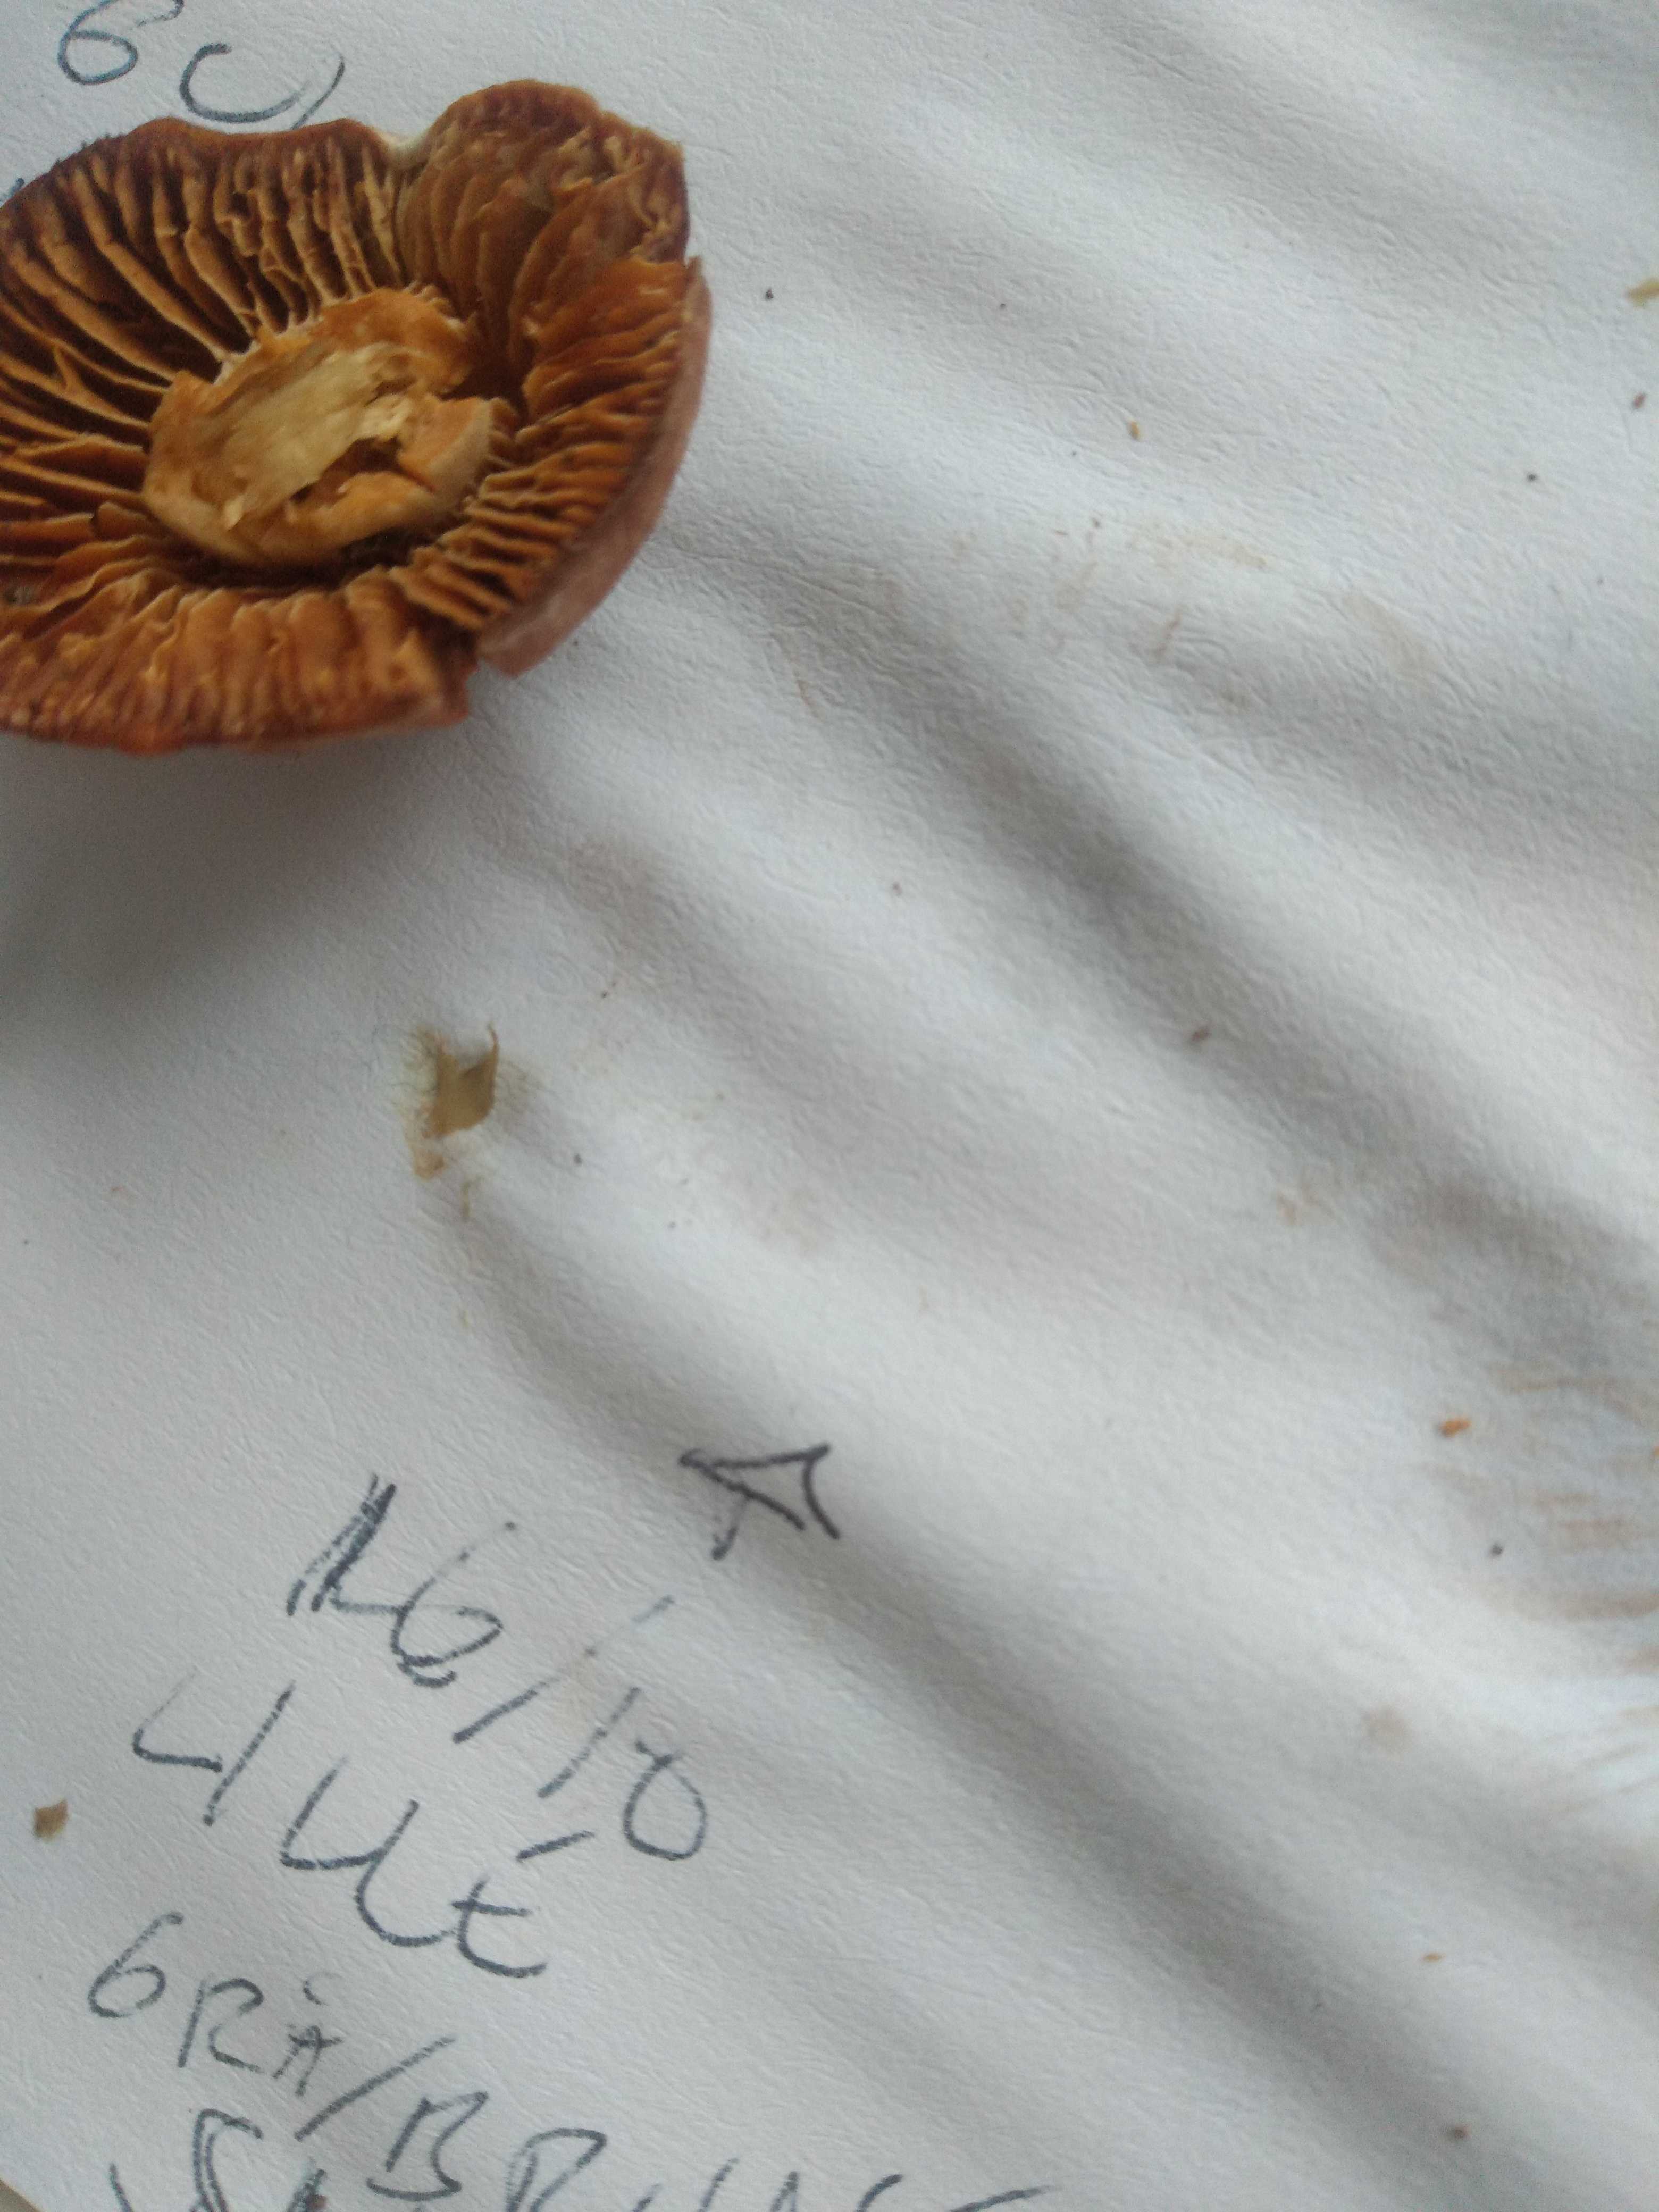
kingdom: Fungi
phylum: Basidiomycota
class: Agaricomycetes
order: Agaricales
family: Cortinariaceae
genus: Cortinarius
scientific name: Cortinarius
